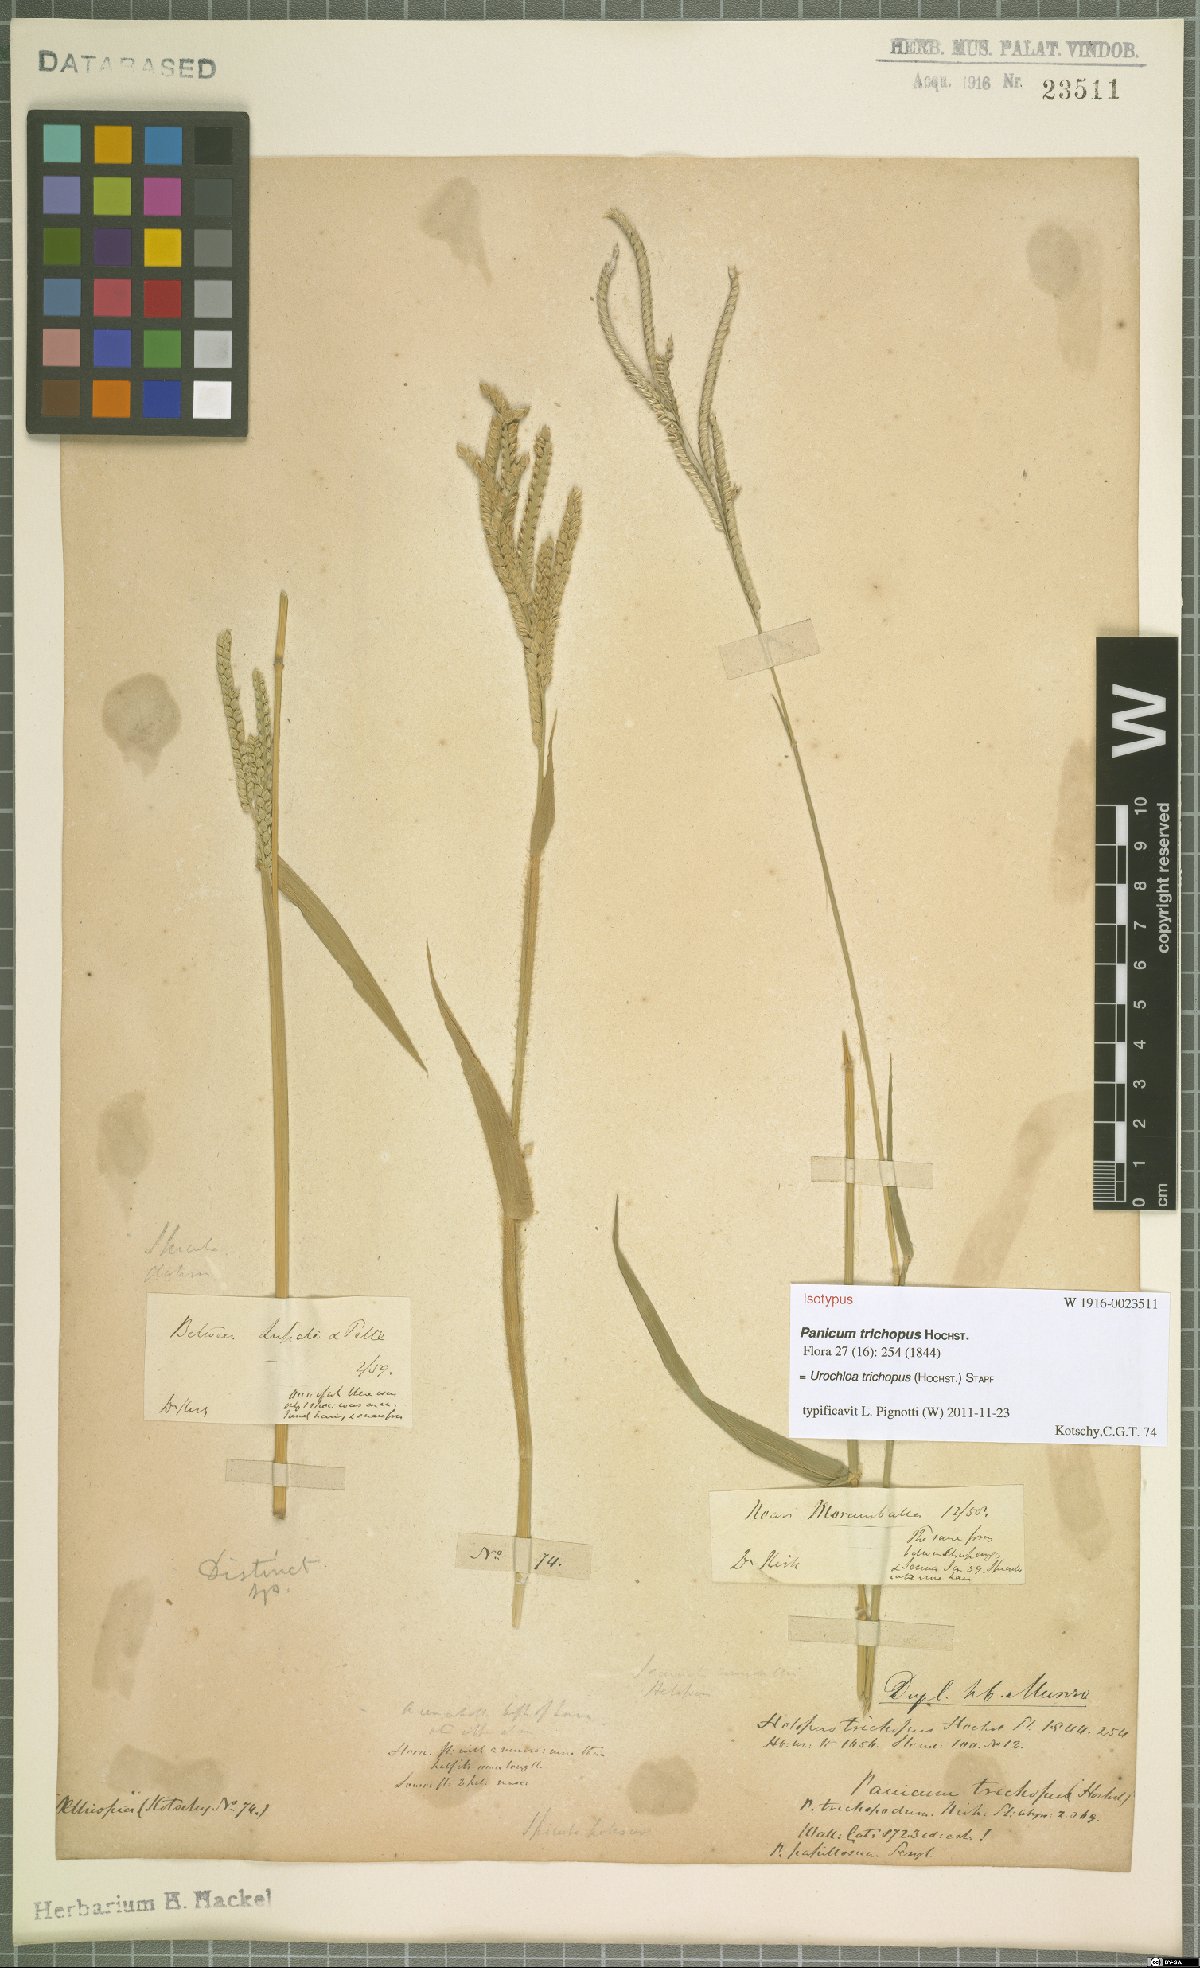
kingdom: Plantae
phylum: Tracheophyta
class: Liliopsida
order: Poales
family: Poaceae
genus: Urochloa
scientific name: Urochloa trichopus
